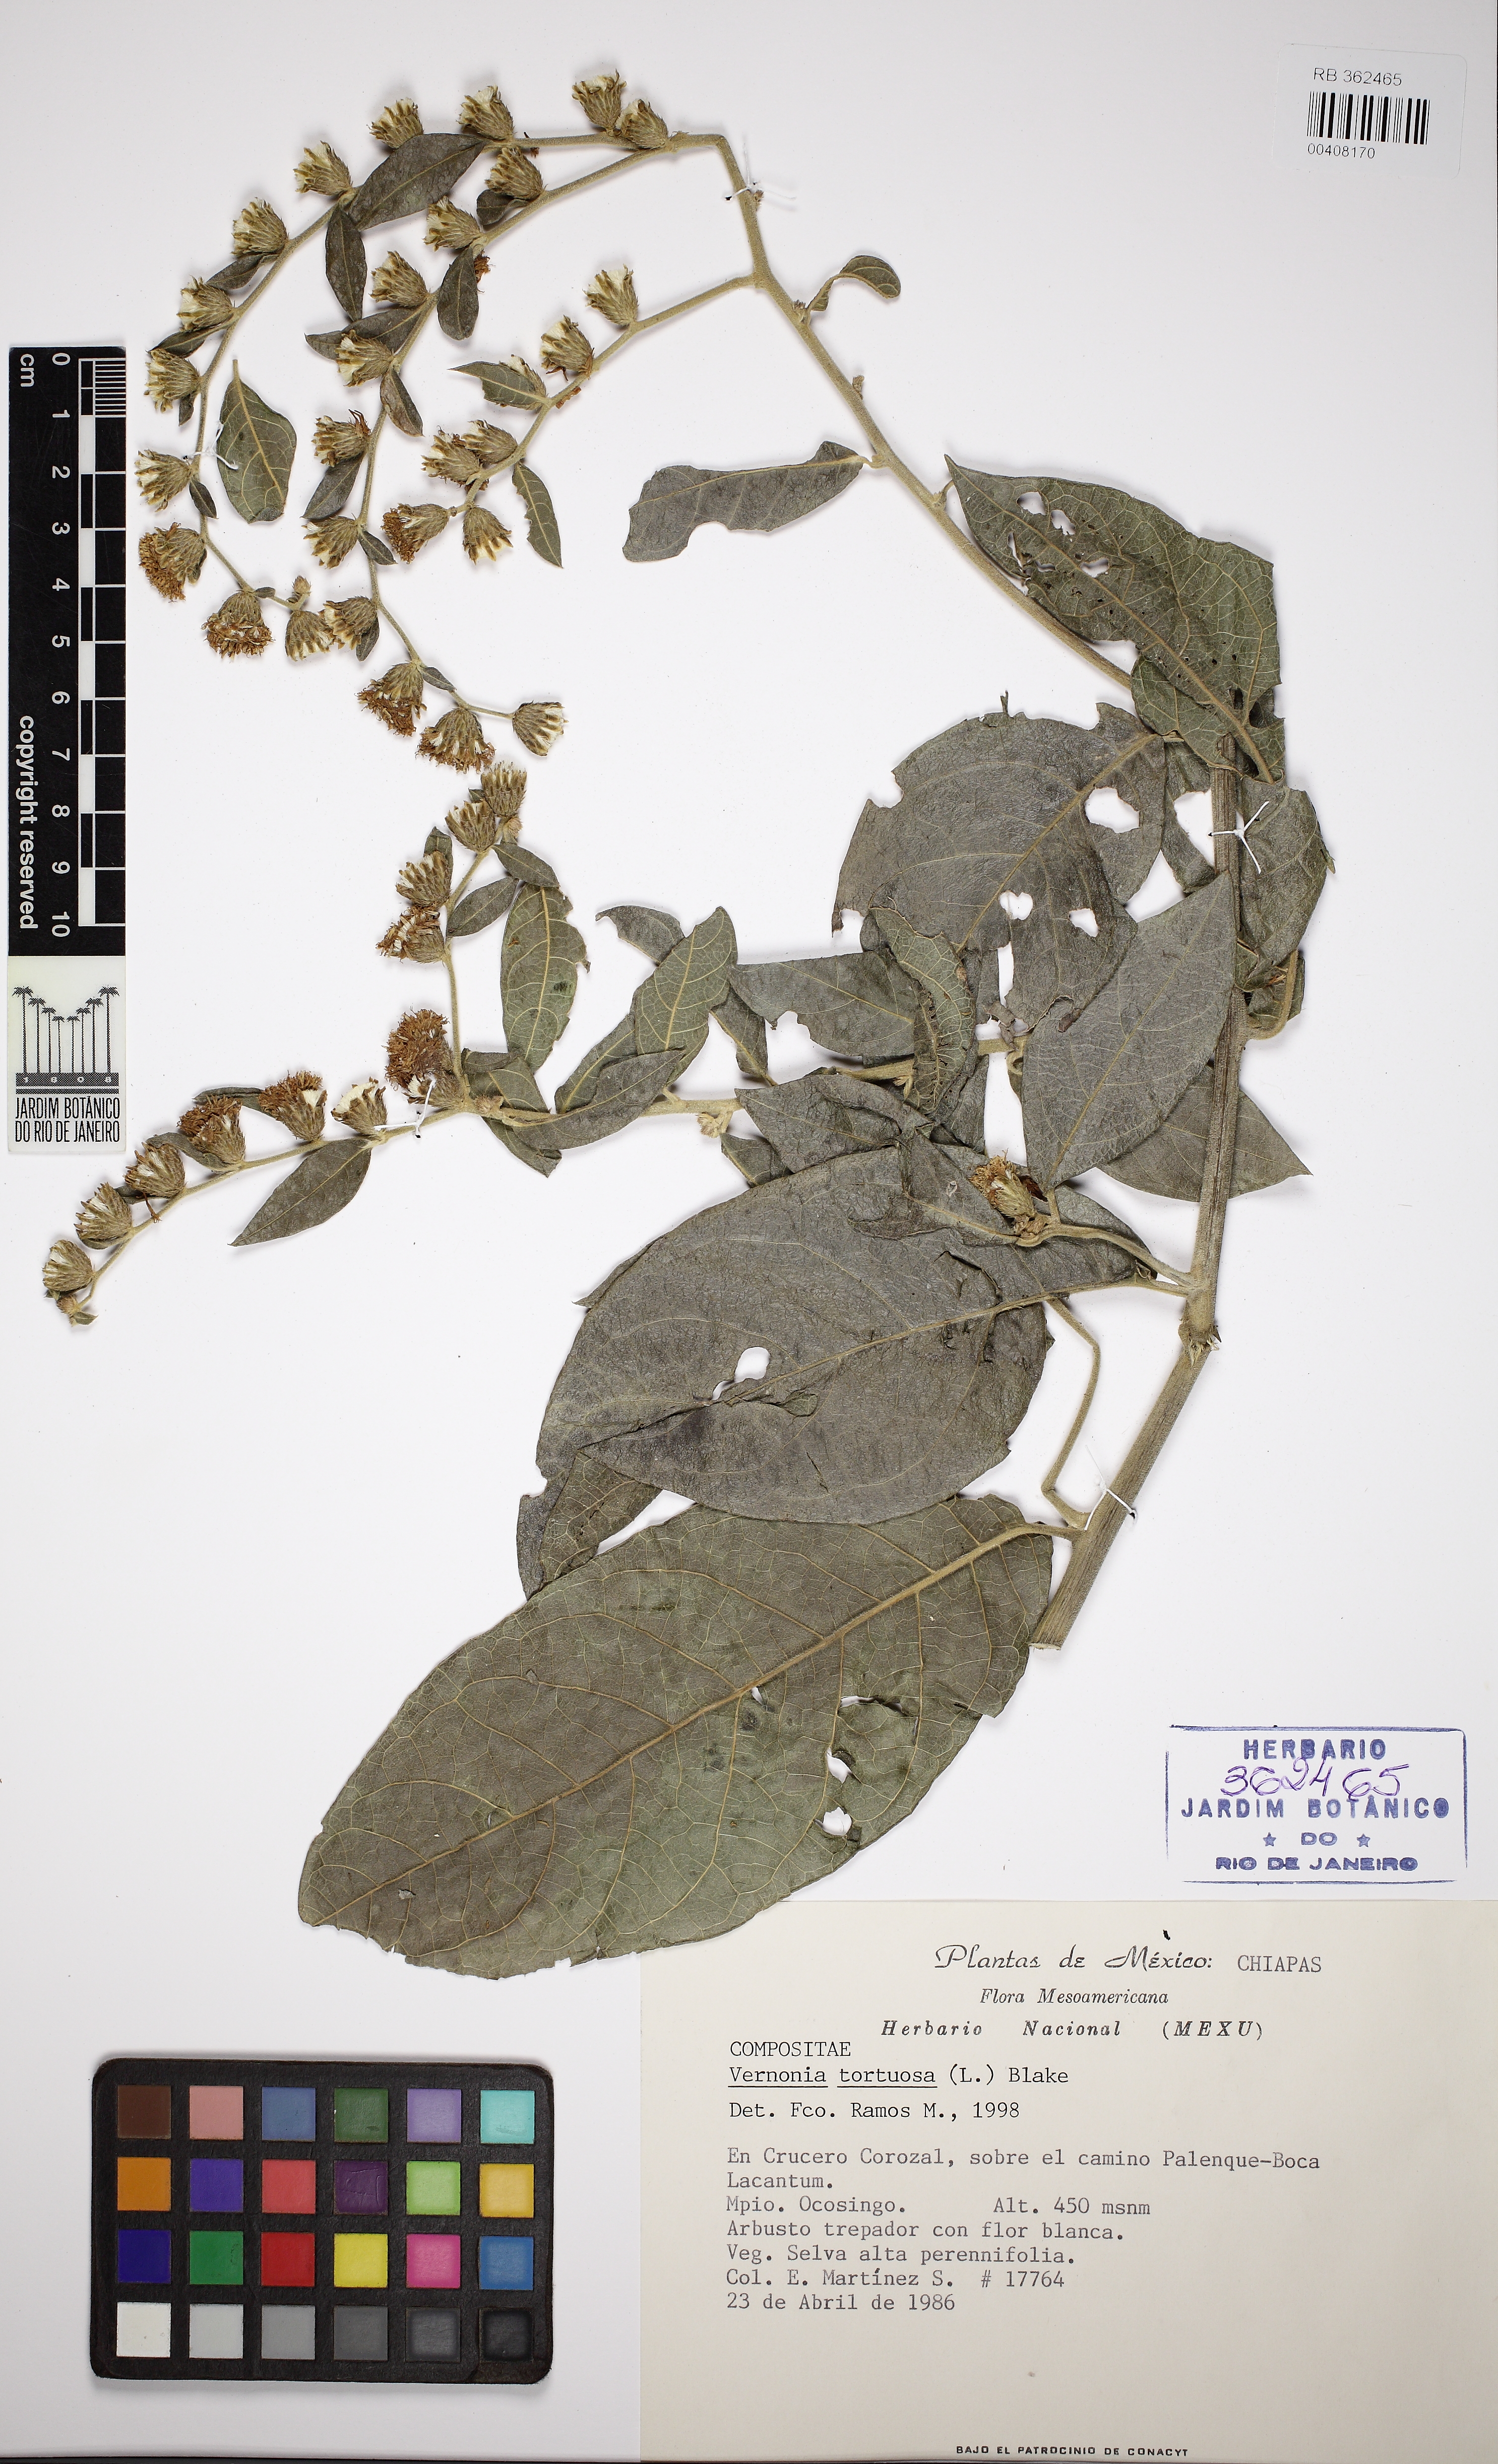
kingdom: Plantae
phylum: Tracheophyta
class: Magnoliopsida
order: Asterales
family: Asteraceae
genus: Lepidaploa
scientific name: Lepidaploa tortuosa
